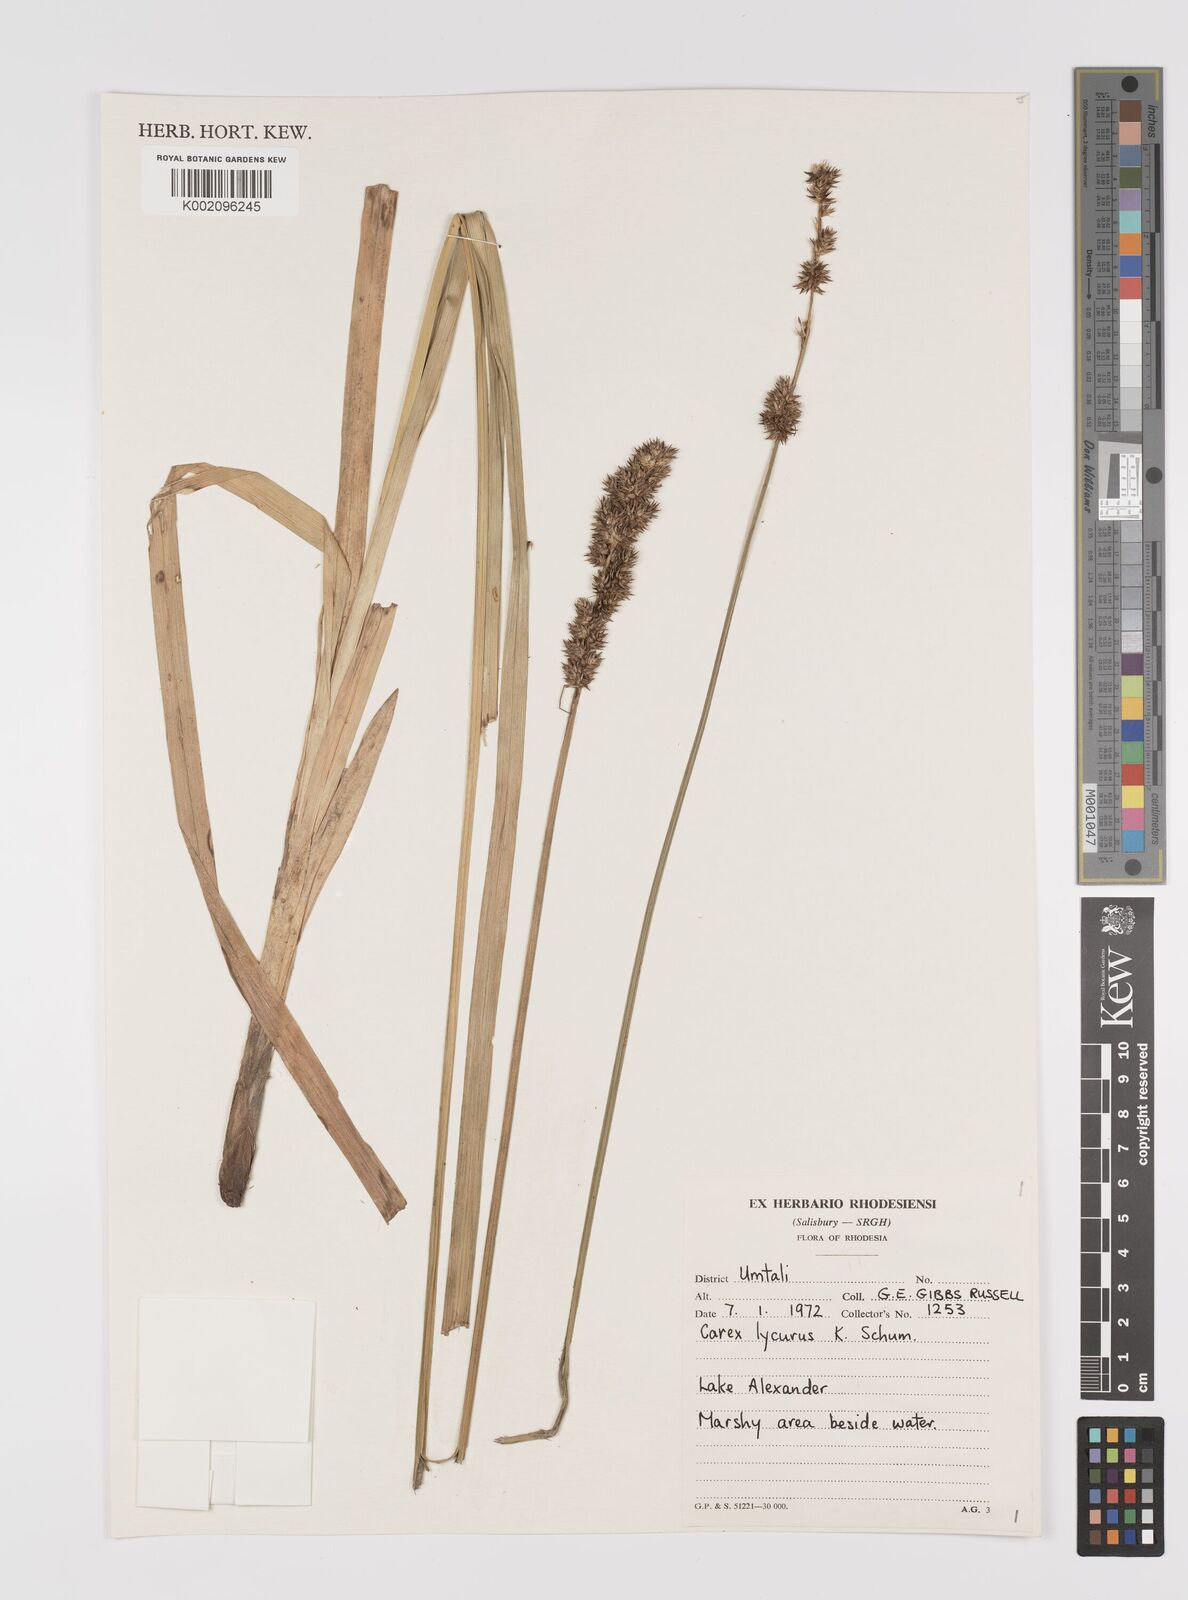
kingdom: Plantae
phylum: Tracheophyta
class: Liliopsida
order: Poales
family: Cyperaceae
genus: Carex
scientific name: Carex lycurus
